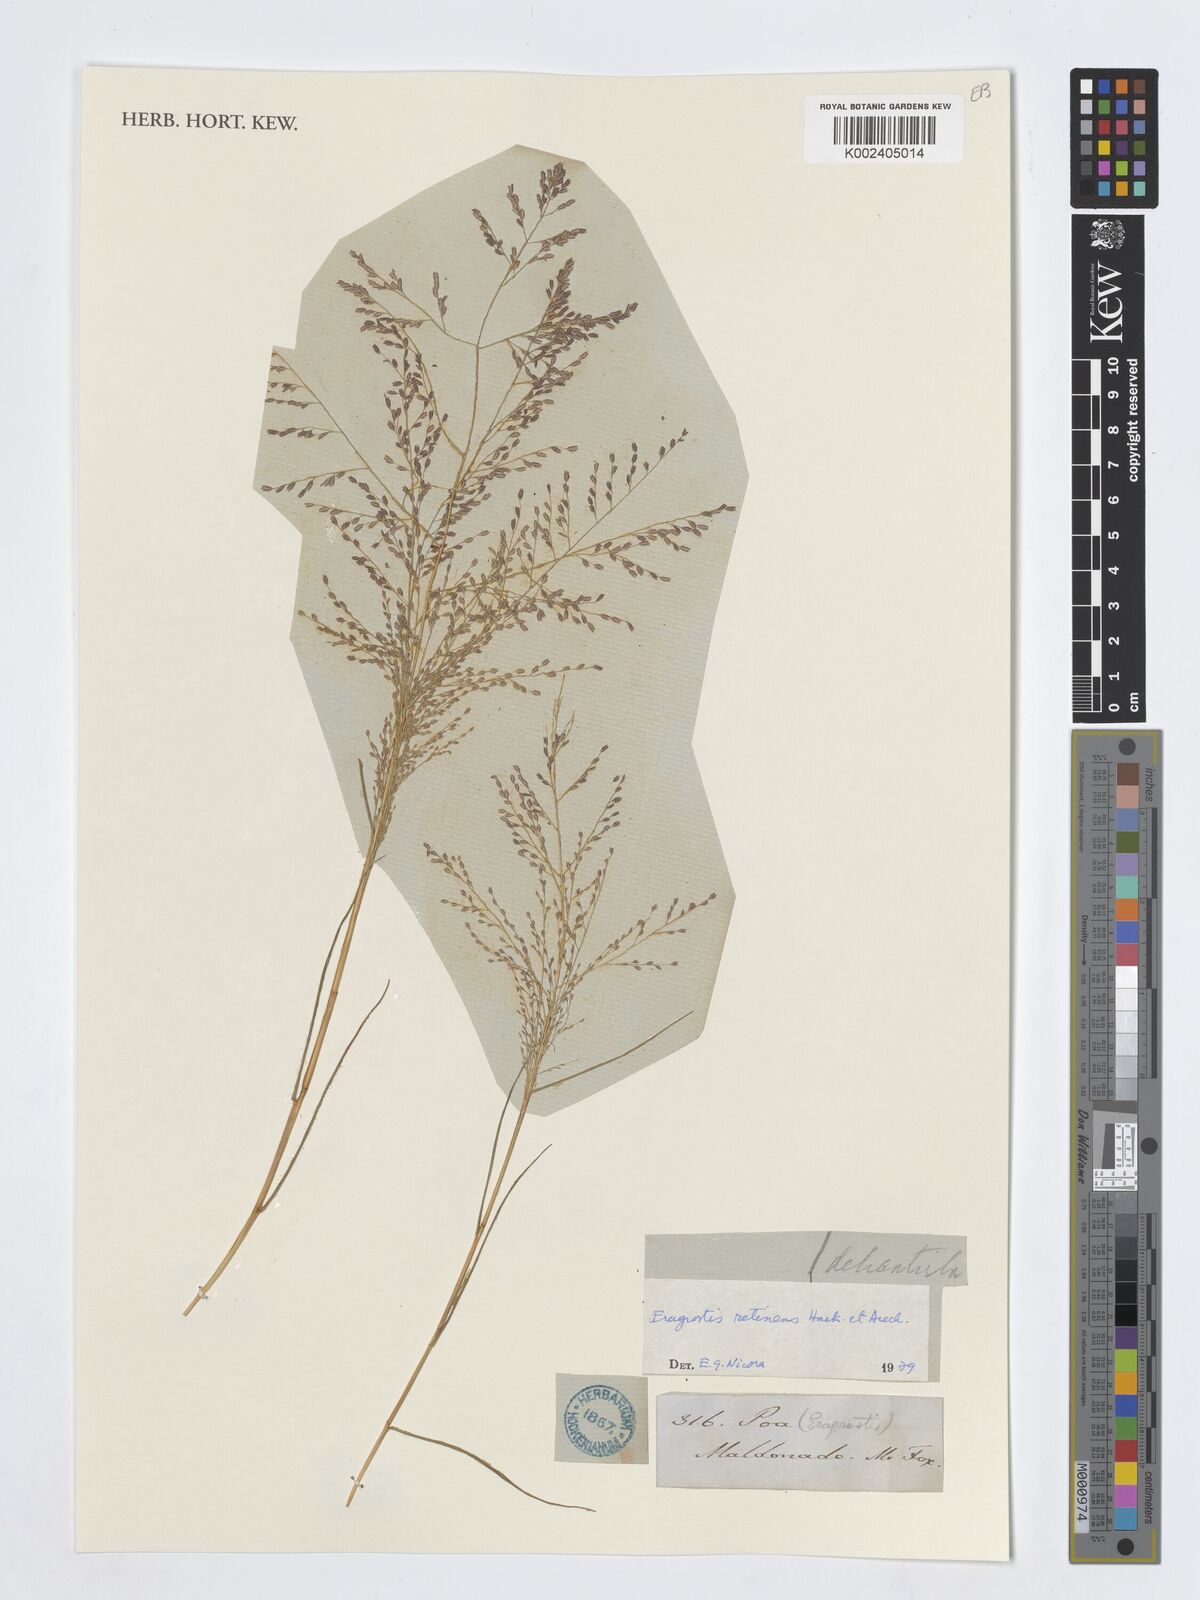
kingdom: Plantae
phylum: Tracheophyta
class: Liliopsida
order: Poales
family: Poaceae
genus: Eragrostis
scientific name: Eragrostis retinens
